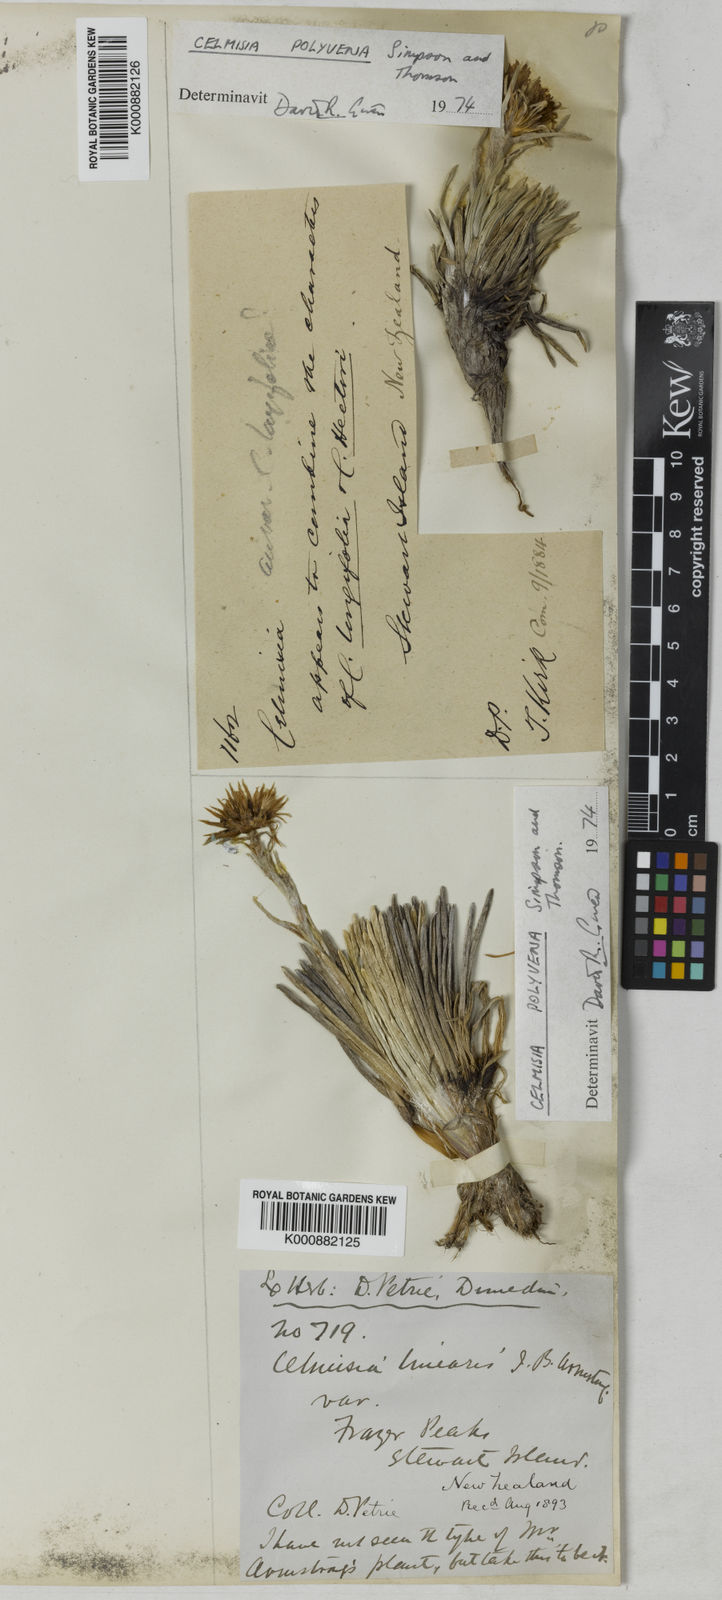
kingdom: Plantae
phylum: Tracheophyta
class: Magnoliopsida
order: Asterales
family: Asteraceae
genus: Celmisia
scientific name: Celmisia polyvena
